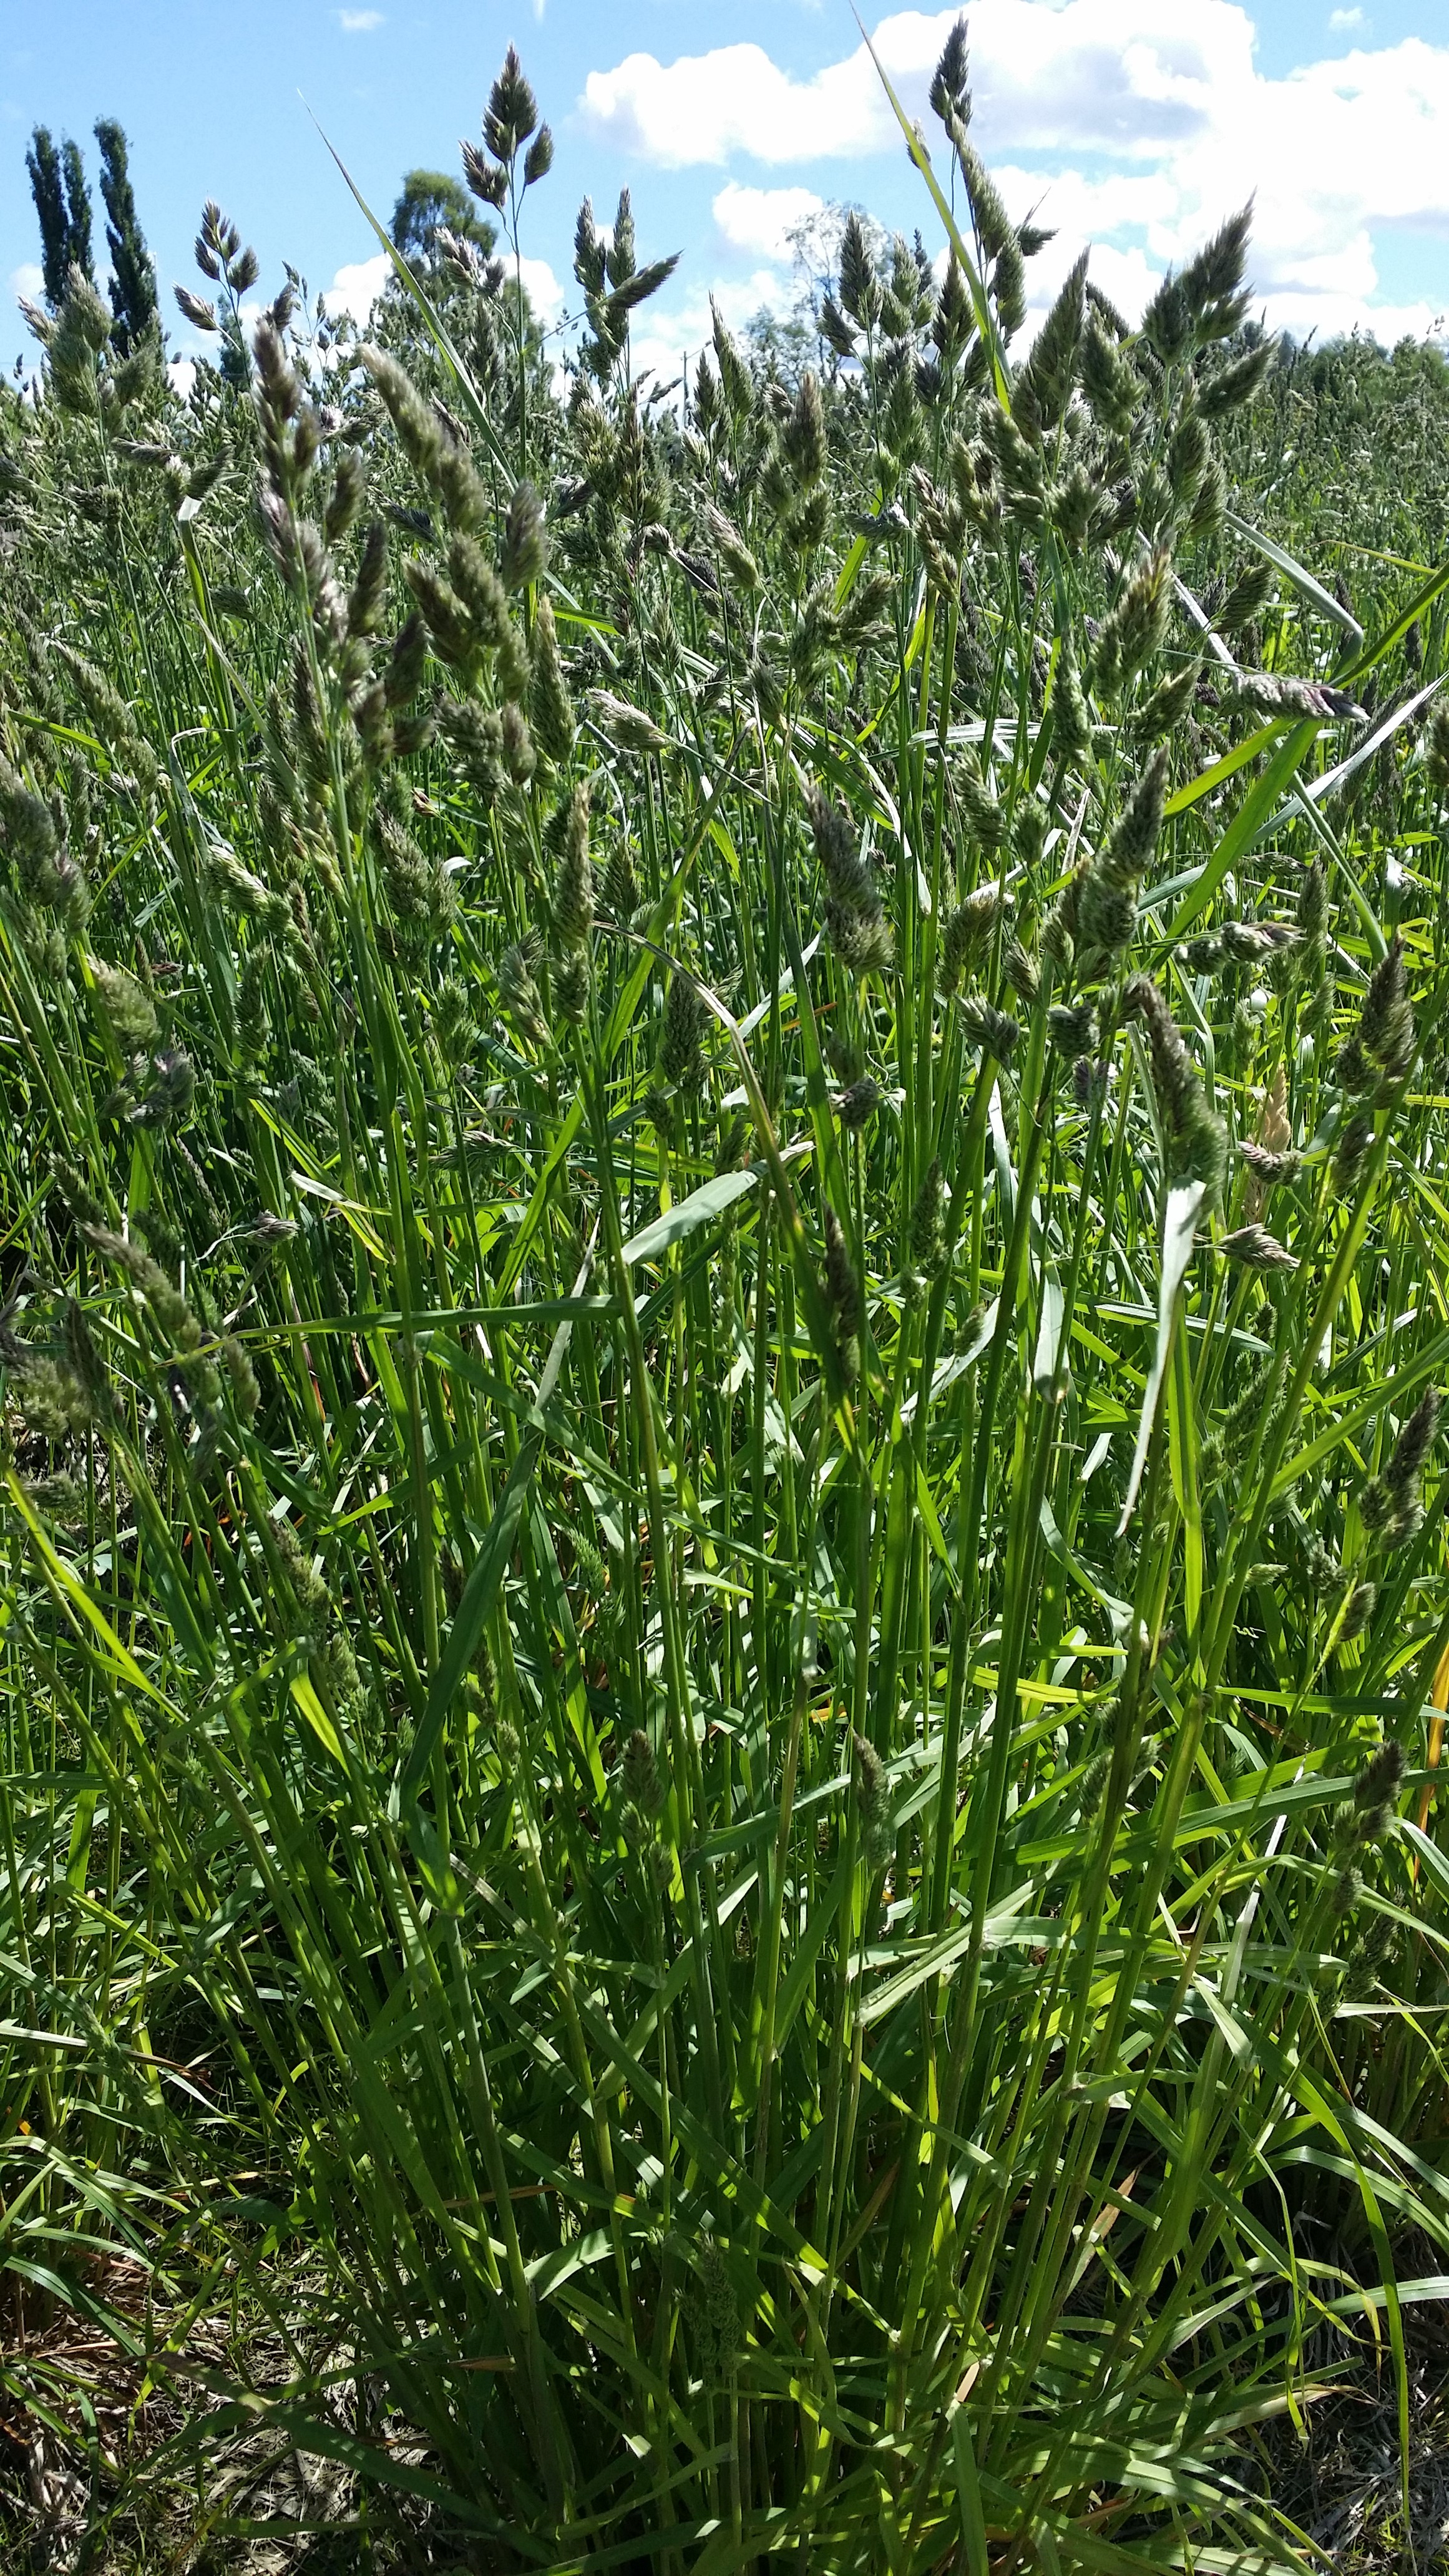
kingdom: Plantae
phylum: Tracheophyta
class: Liliopsida
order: Poales
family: Poaceae
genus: Dactylis
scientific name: Dactylis glomerata
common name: Orchardgrass
